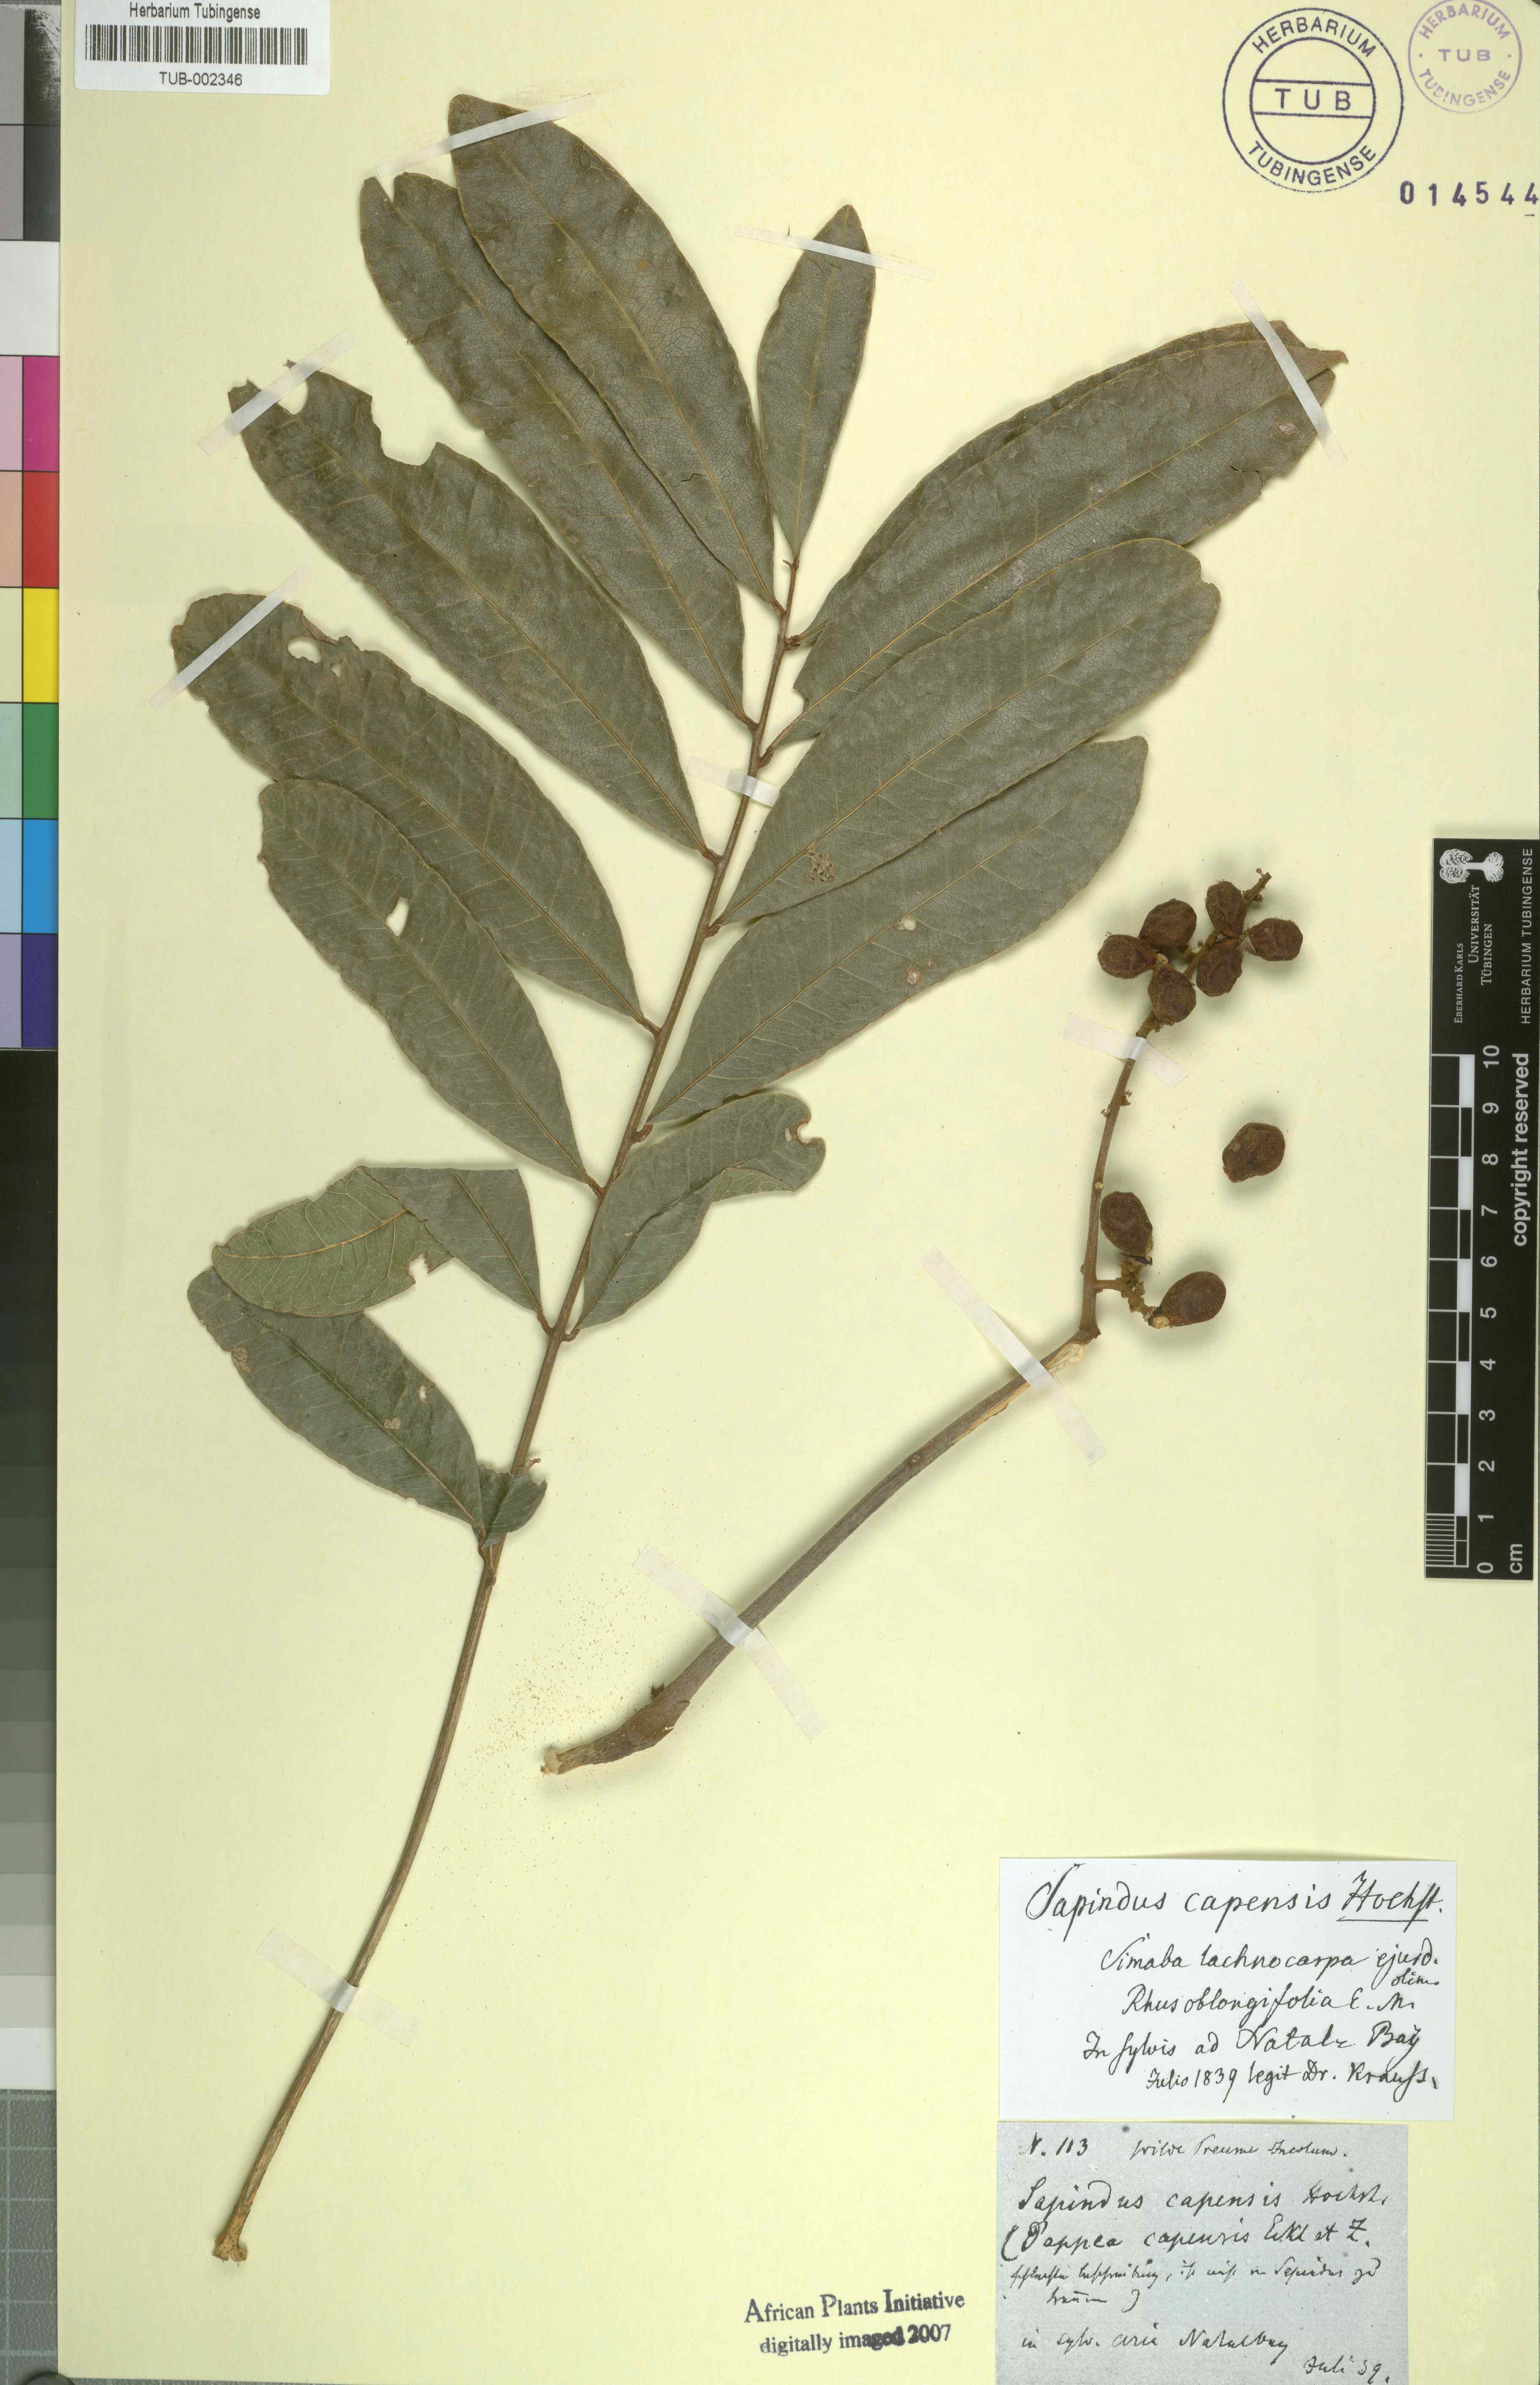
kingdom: Plantae
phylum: Tracheophyta
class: Magnoliopsida
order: Sapindales
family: Sapindaceae
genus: Deinbollia
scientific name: Deinbollia oblongifolia
